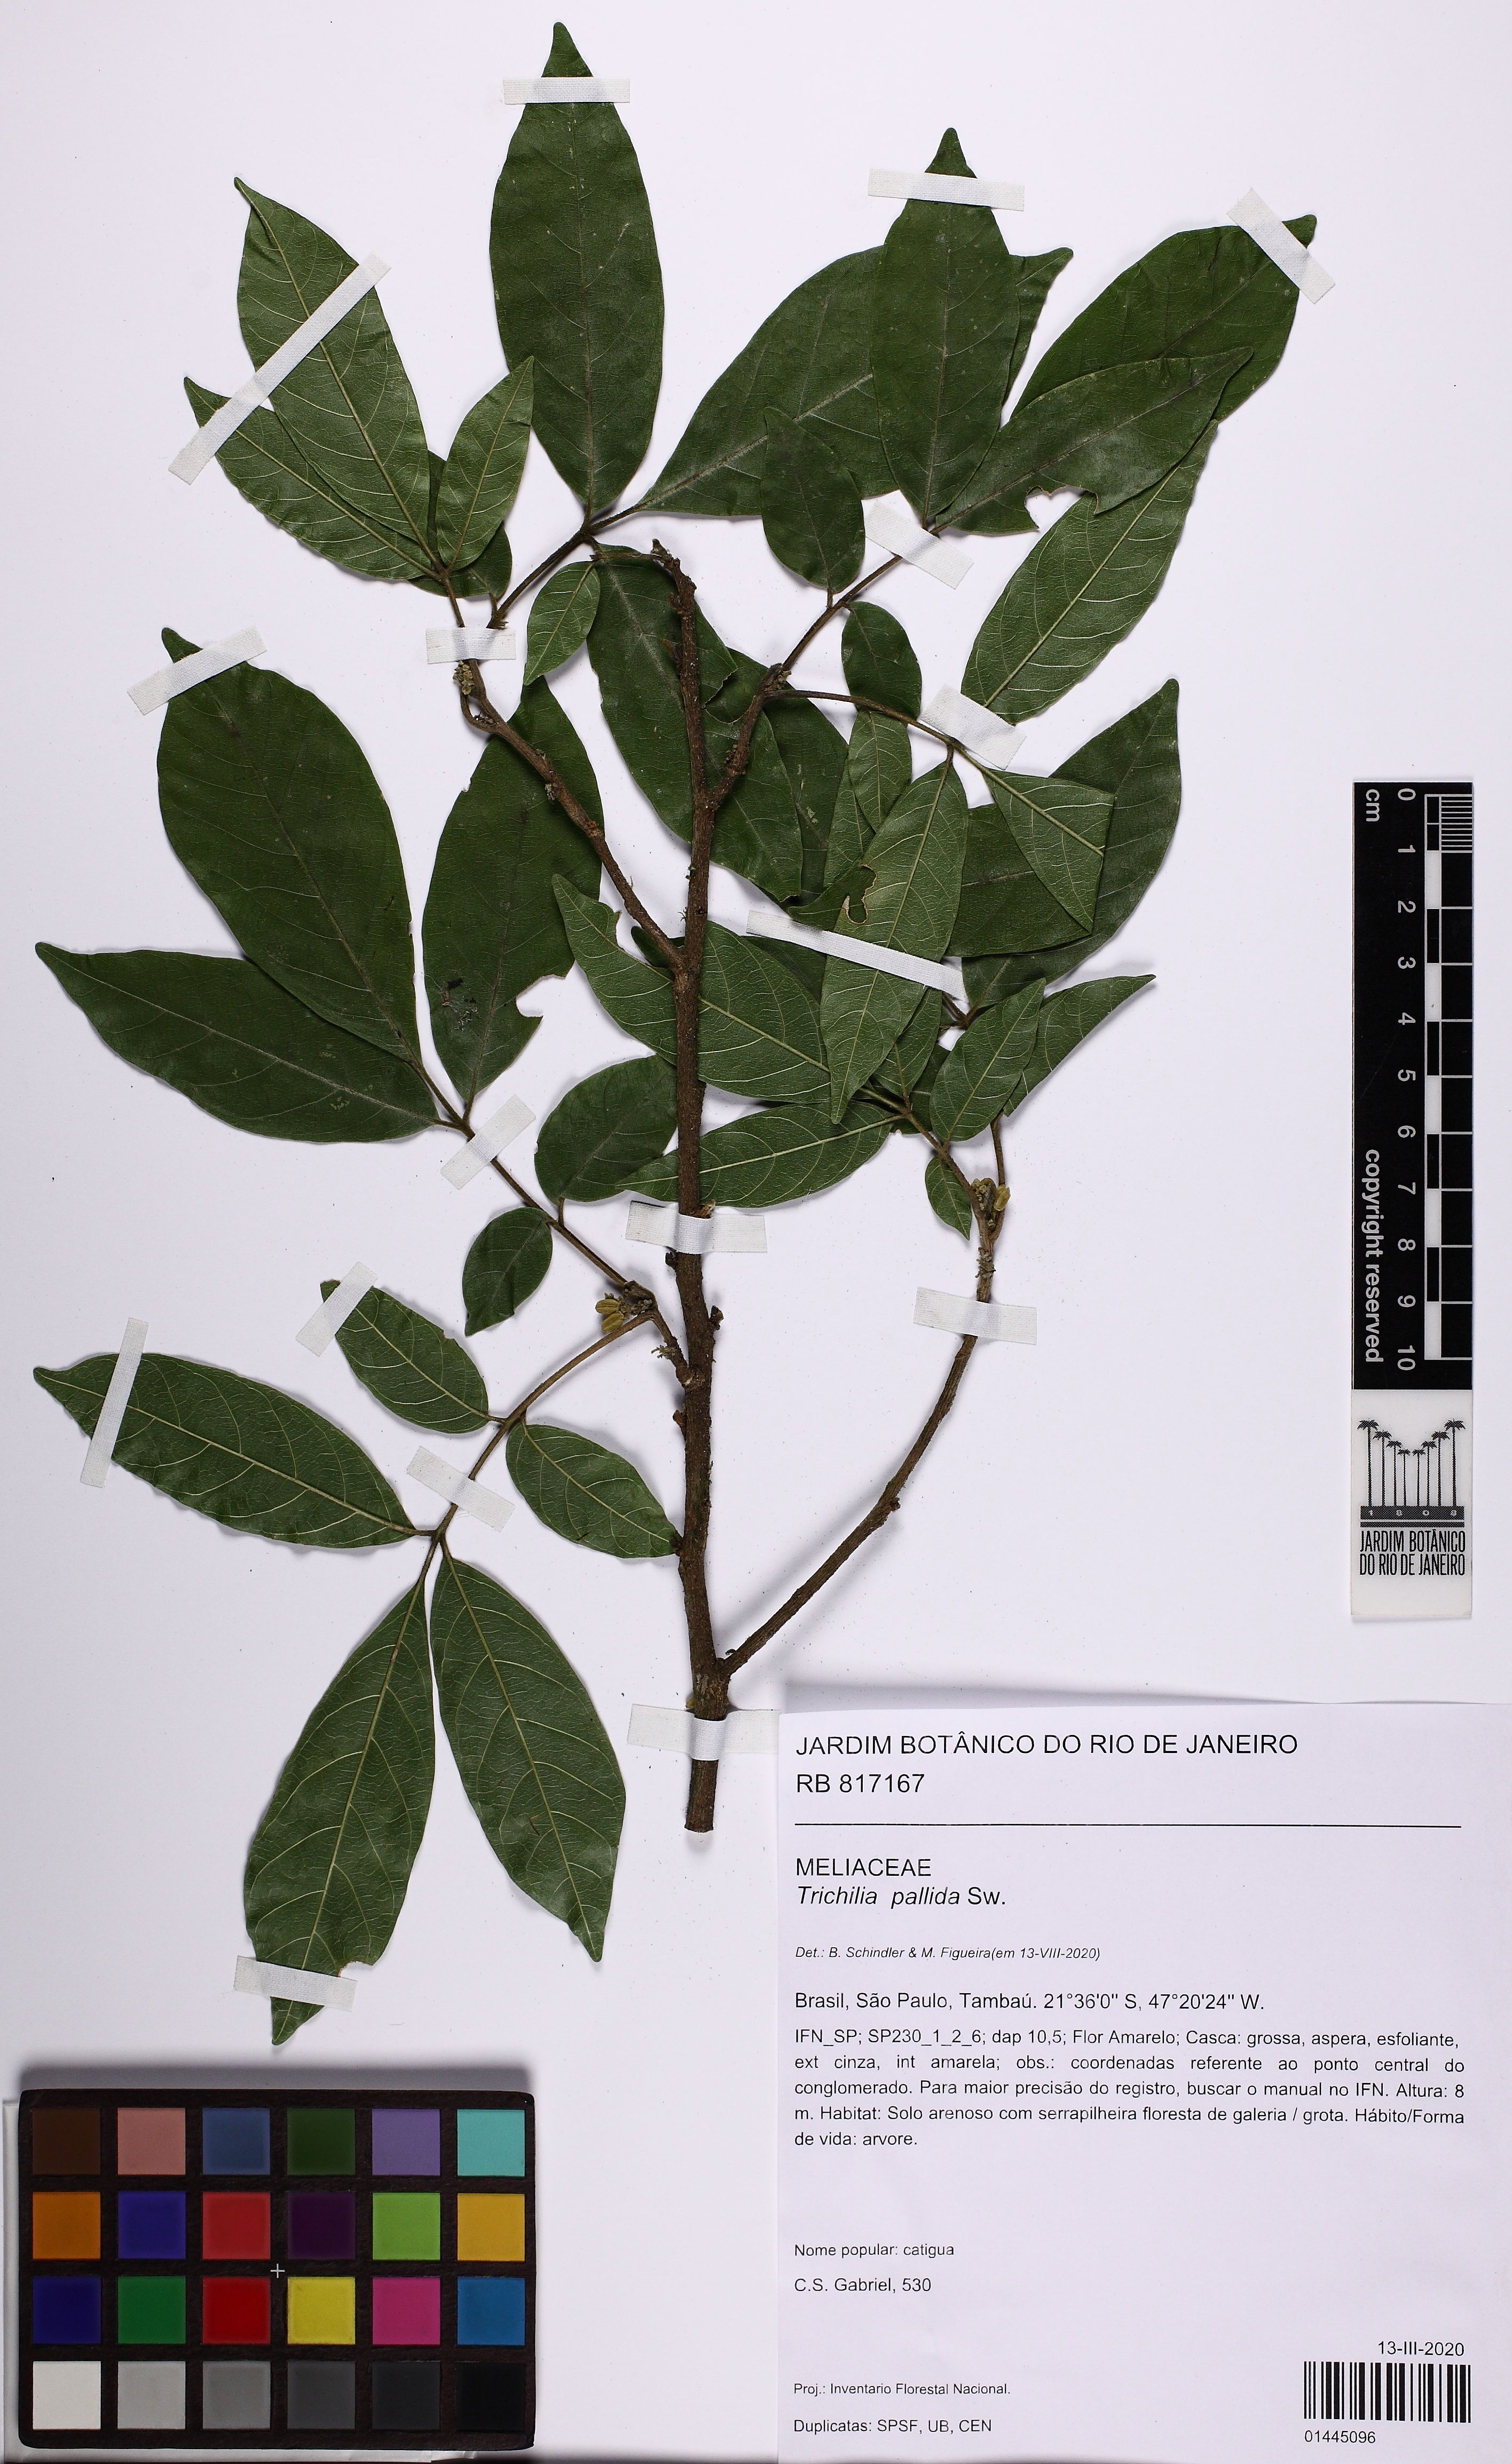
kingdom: Plantae
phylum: Tracheophyta
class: Magnoliopsida
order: Sapindales
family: Meliaceae
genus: Trichilia
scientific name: Trichilia pallida
